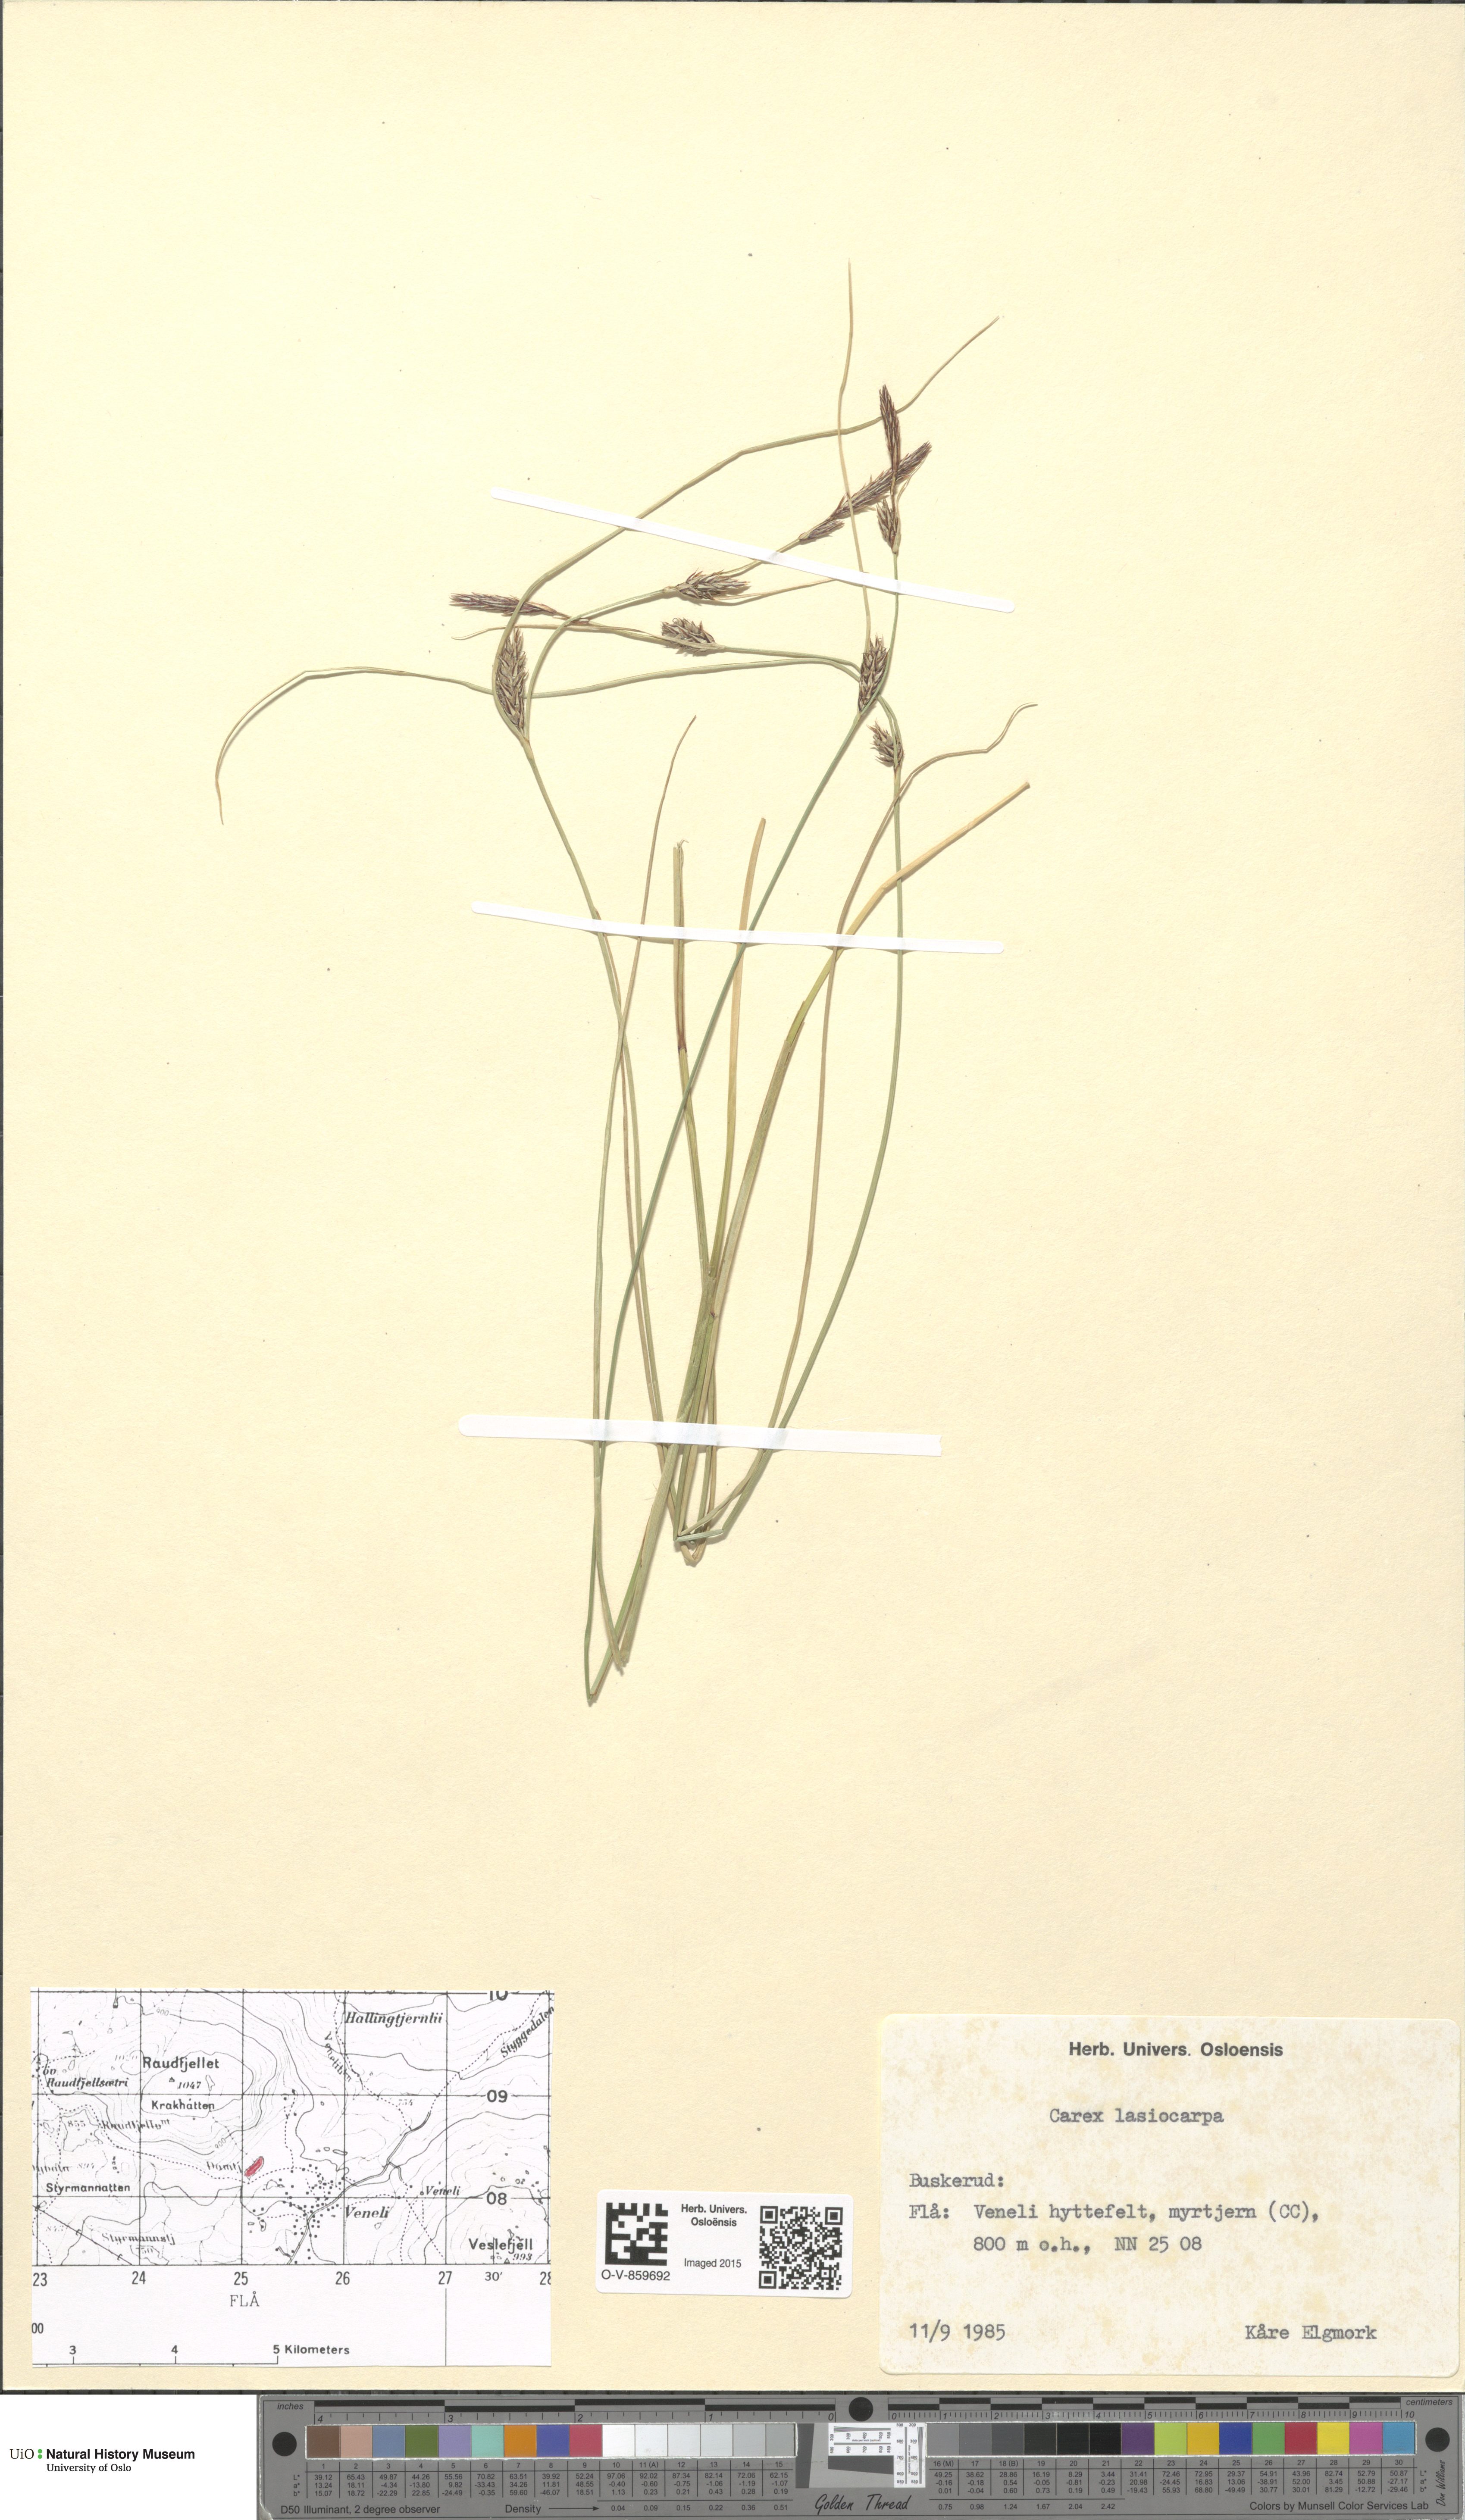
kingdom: Plantae
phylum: Tracheophyta
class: Liliopsida
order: Poales
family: Cyperaceae
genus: Carex
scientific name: Carex lasiocarpa
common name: Slender sedge
